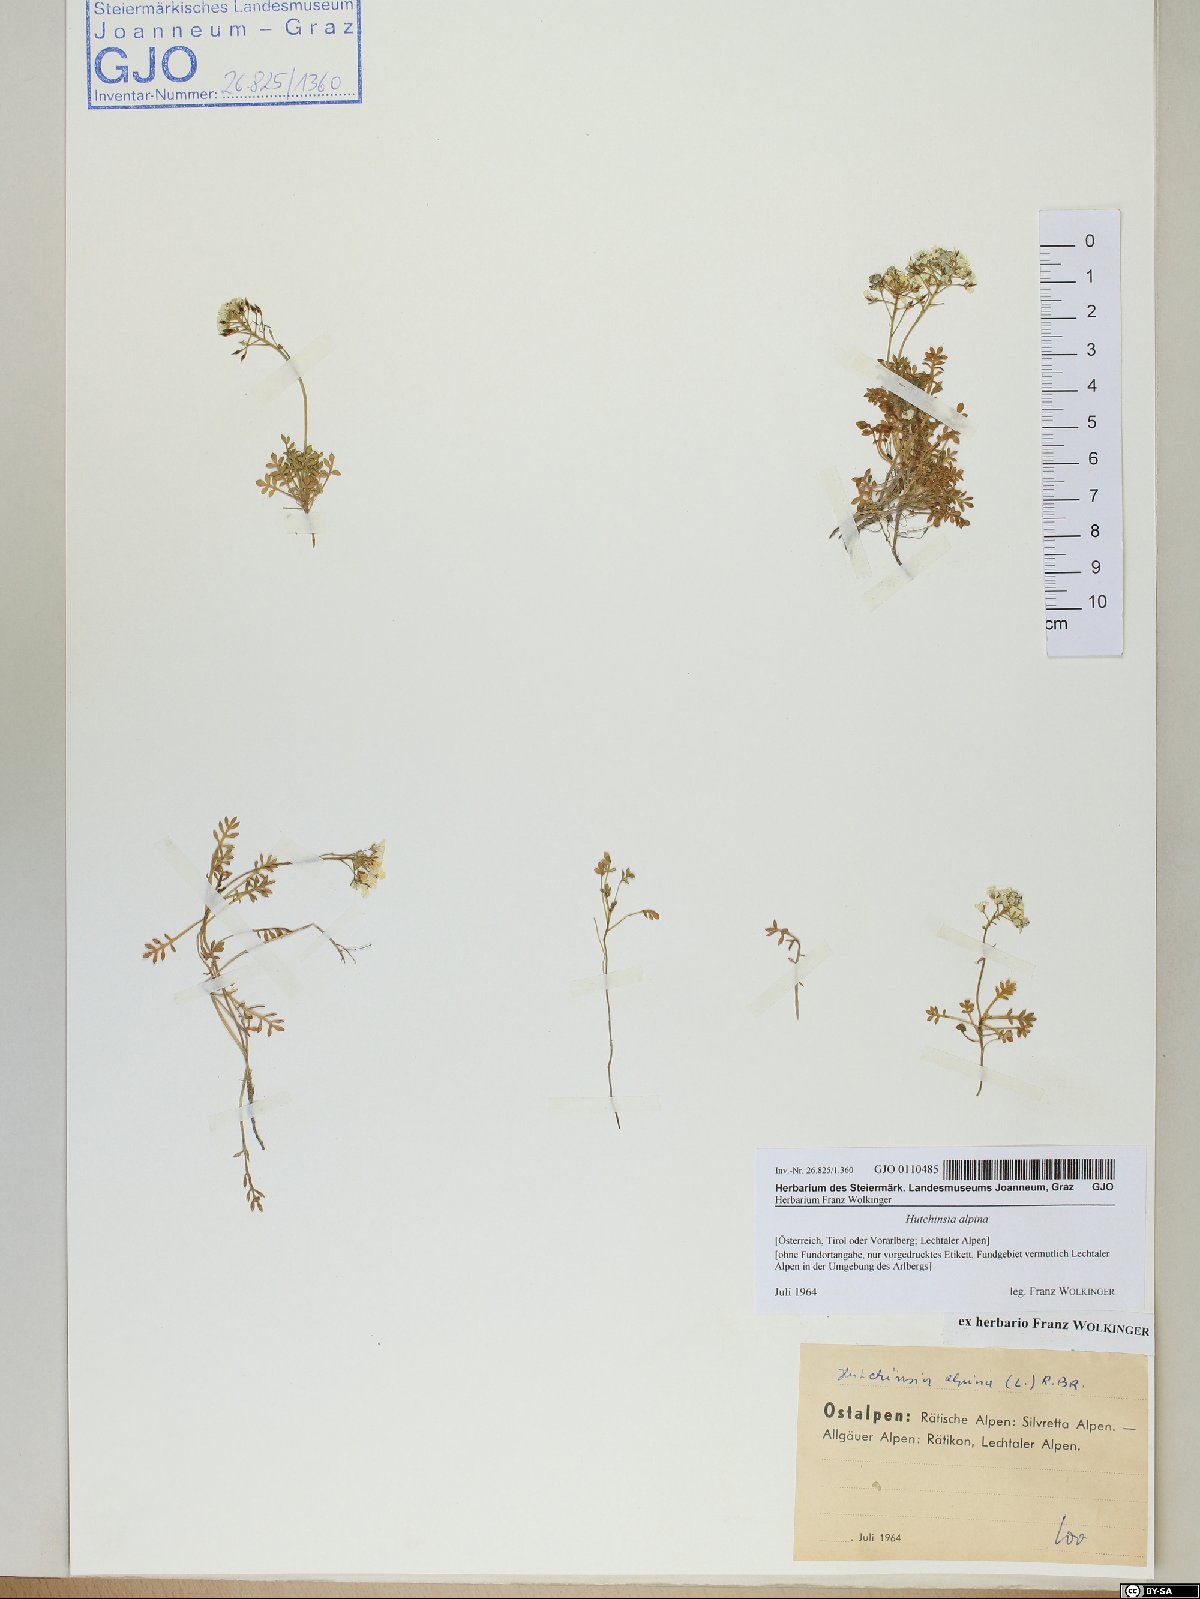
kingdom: Plantae
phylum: Tracheophyta
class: Magnoliopsida
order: Brassicales
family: Brassicaceae
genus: Hornungia
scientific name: Hornungia alpina
